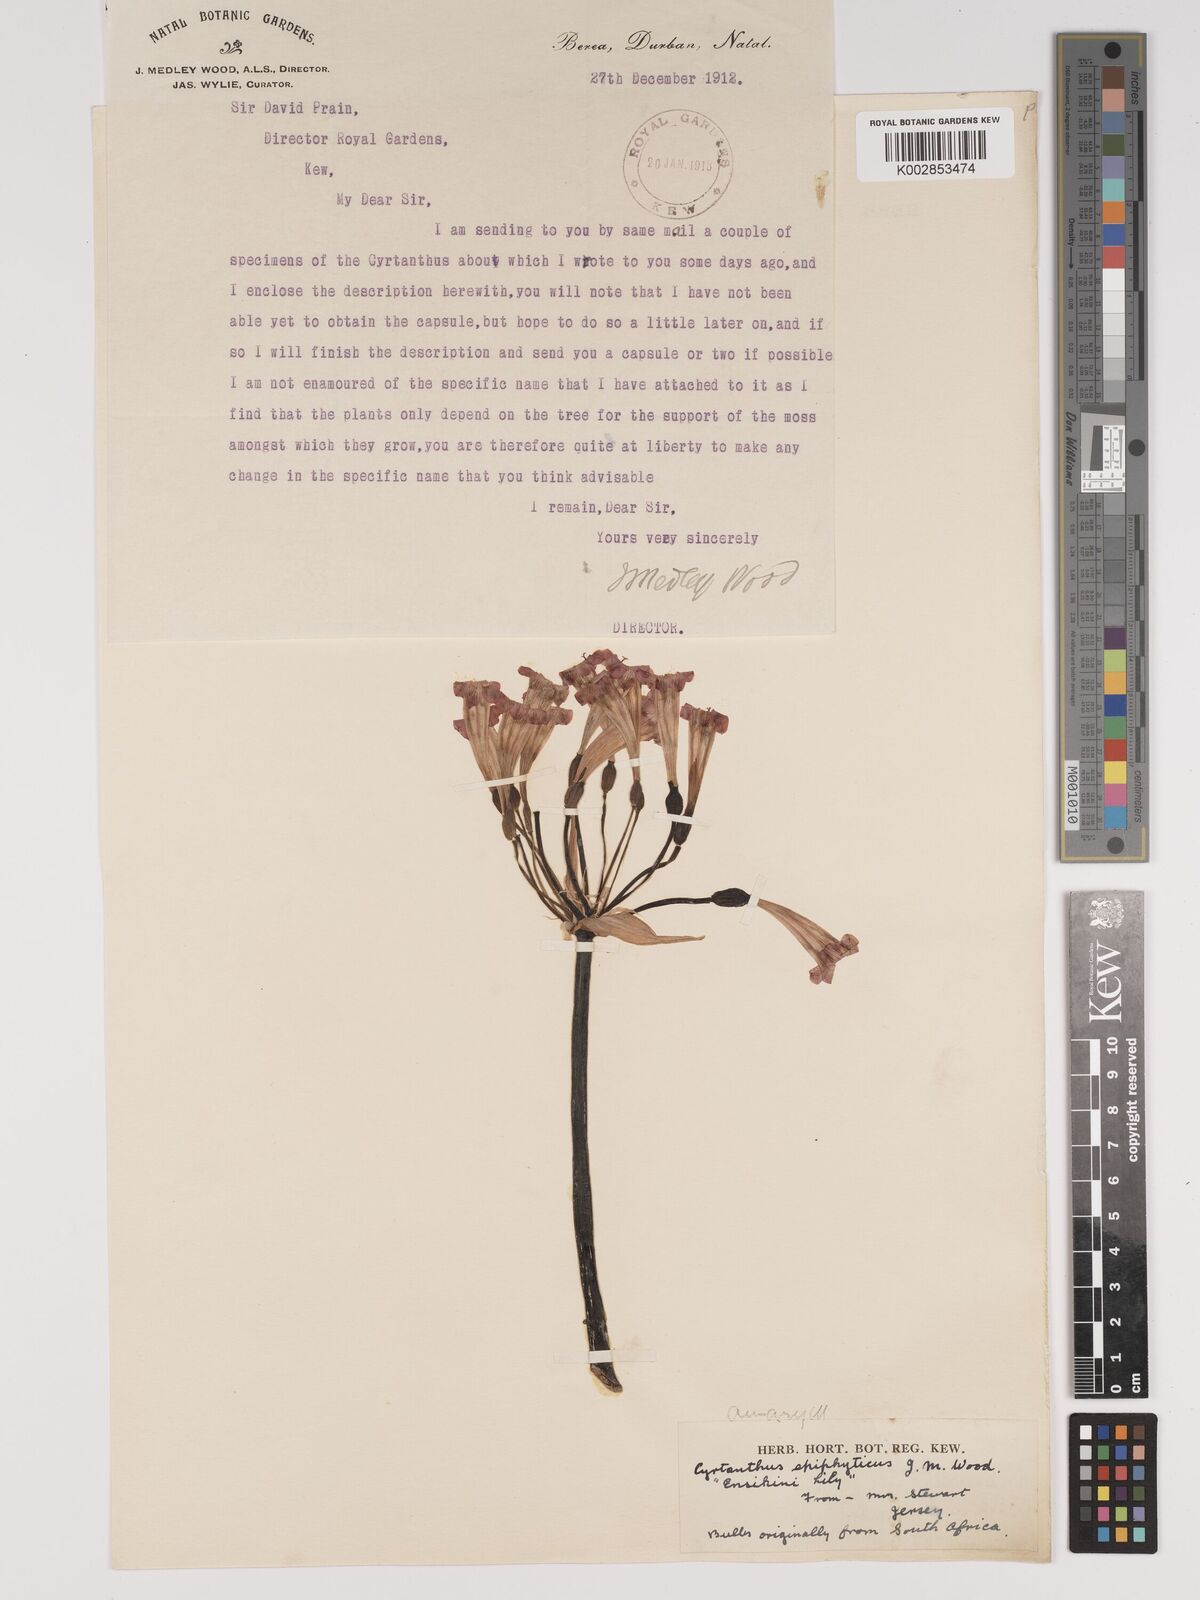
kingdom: Plantae
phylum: Tracheophyta
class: Liliopsida
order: Asparagales
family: Amaryllidaceae
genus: Cyrtanthus
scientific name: Cyrtanthus epiphyticus
